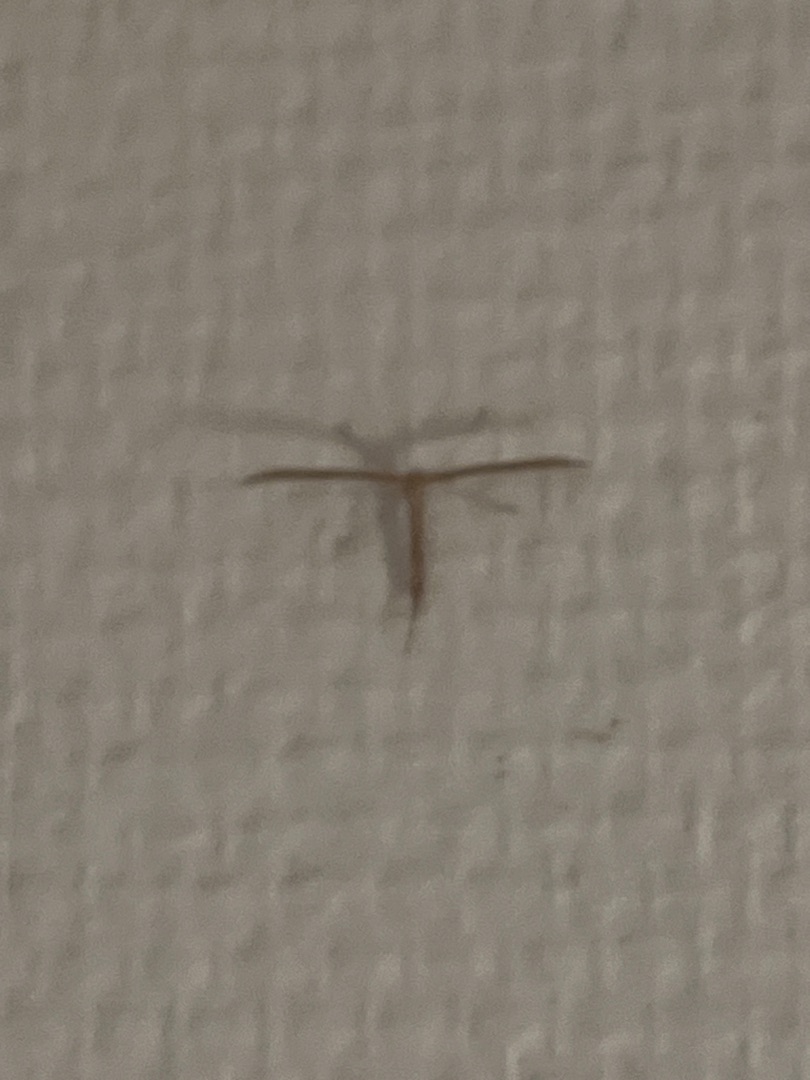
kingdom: Animalia
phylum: Arthropoda
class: Insecta
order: Lepidoptera
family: Pterophoridae
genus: Emmelina
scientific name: Emmelina monodactyla
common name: Snerlefjermøl
